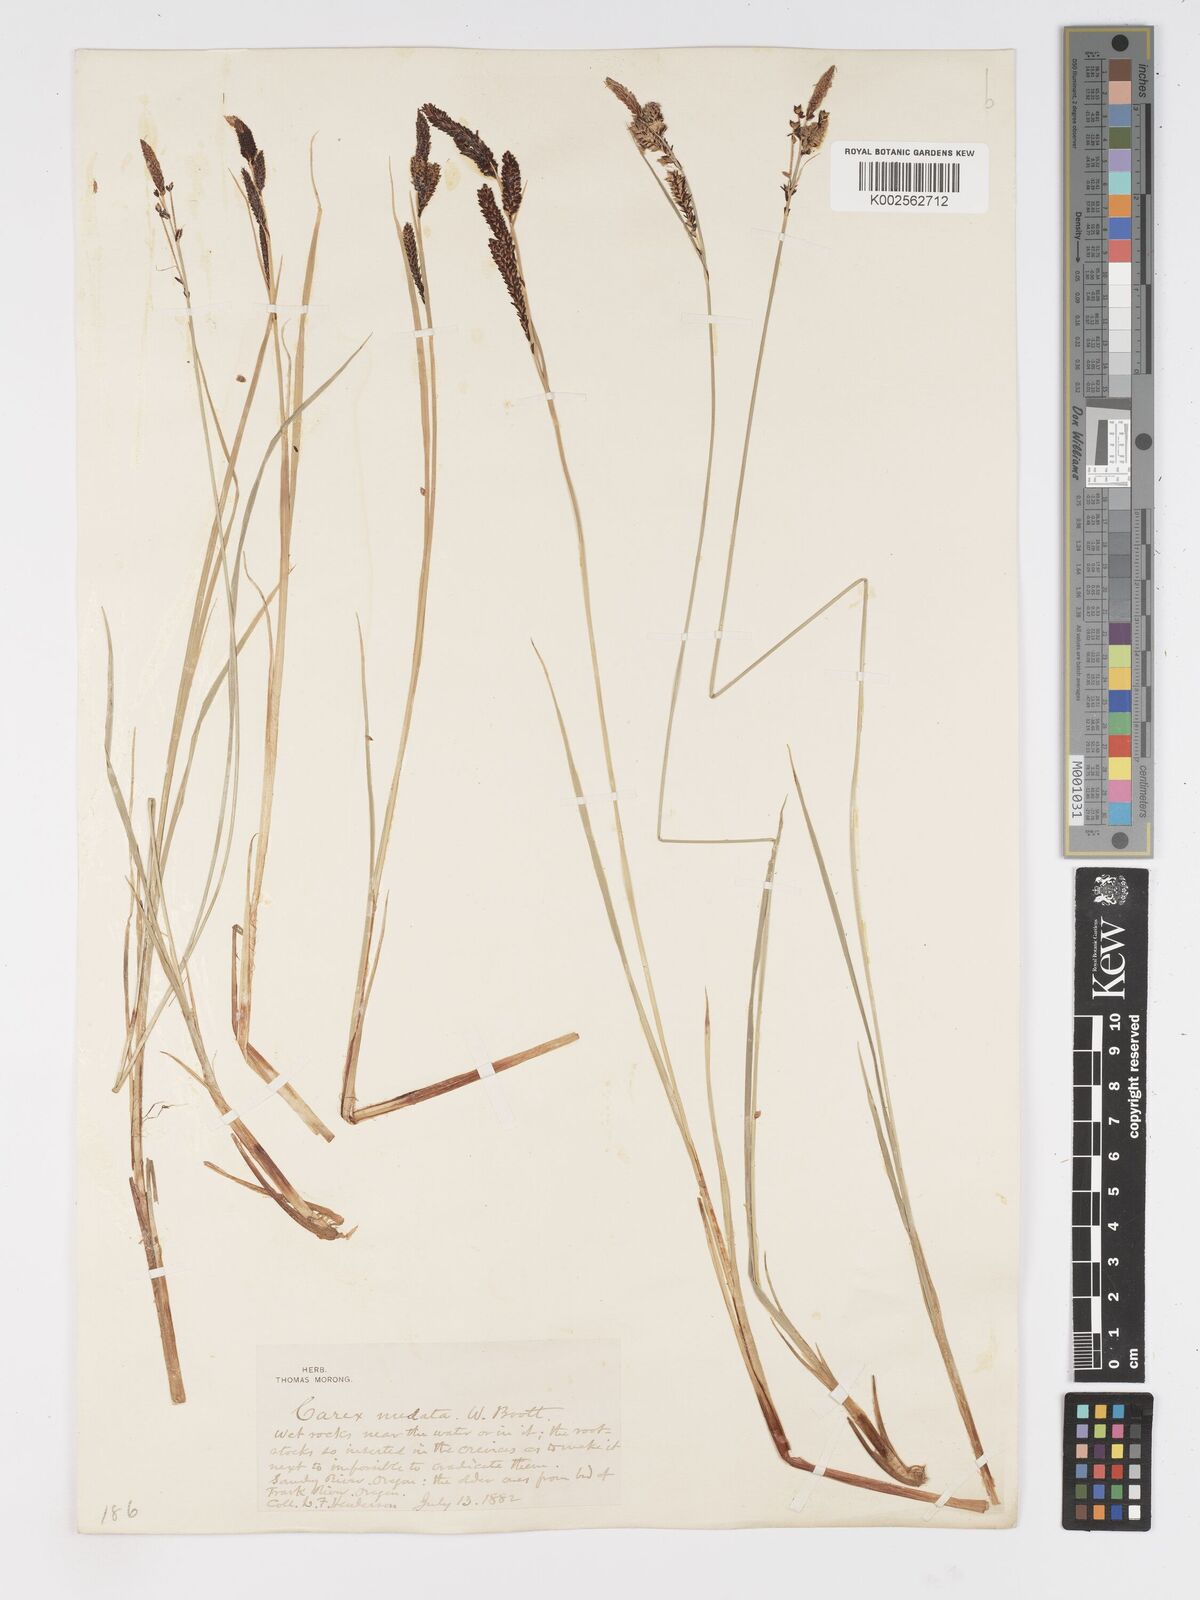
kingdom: Plantae
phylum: Tracheophyta
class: Liliopsida
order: Poales
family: Cyperaceae
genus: Carex
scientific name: Carex nudata
